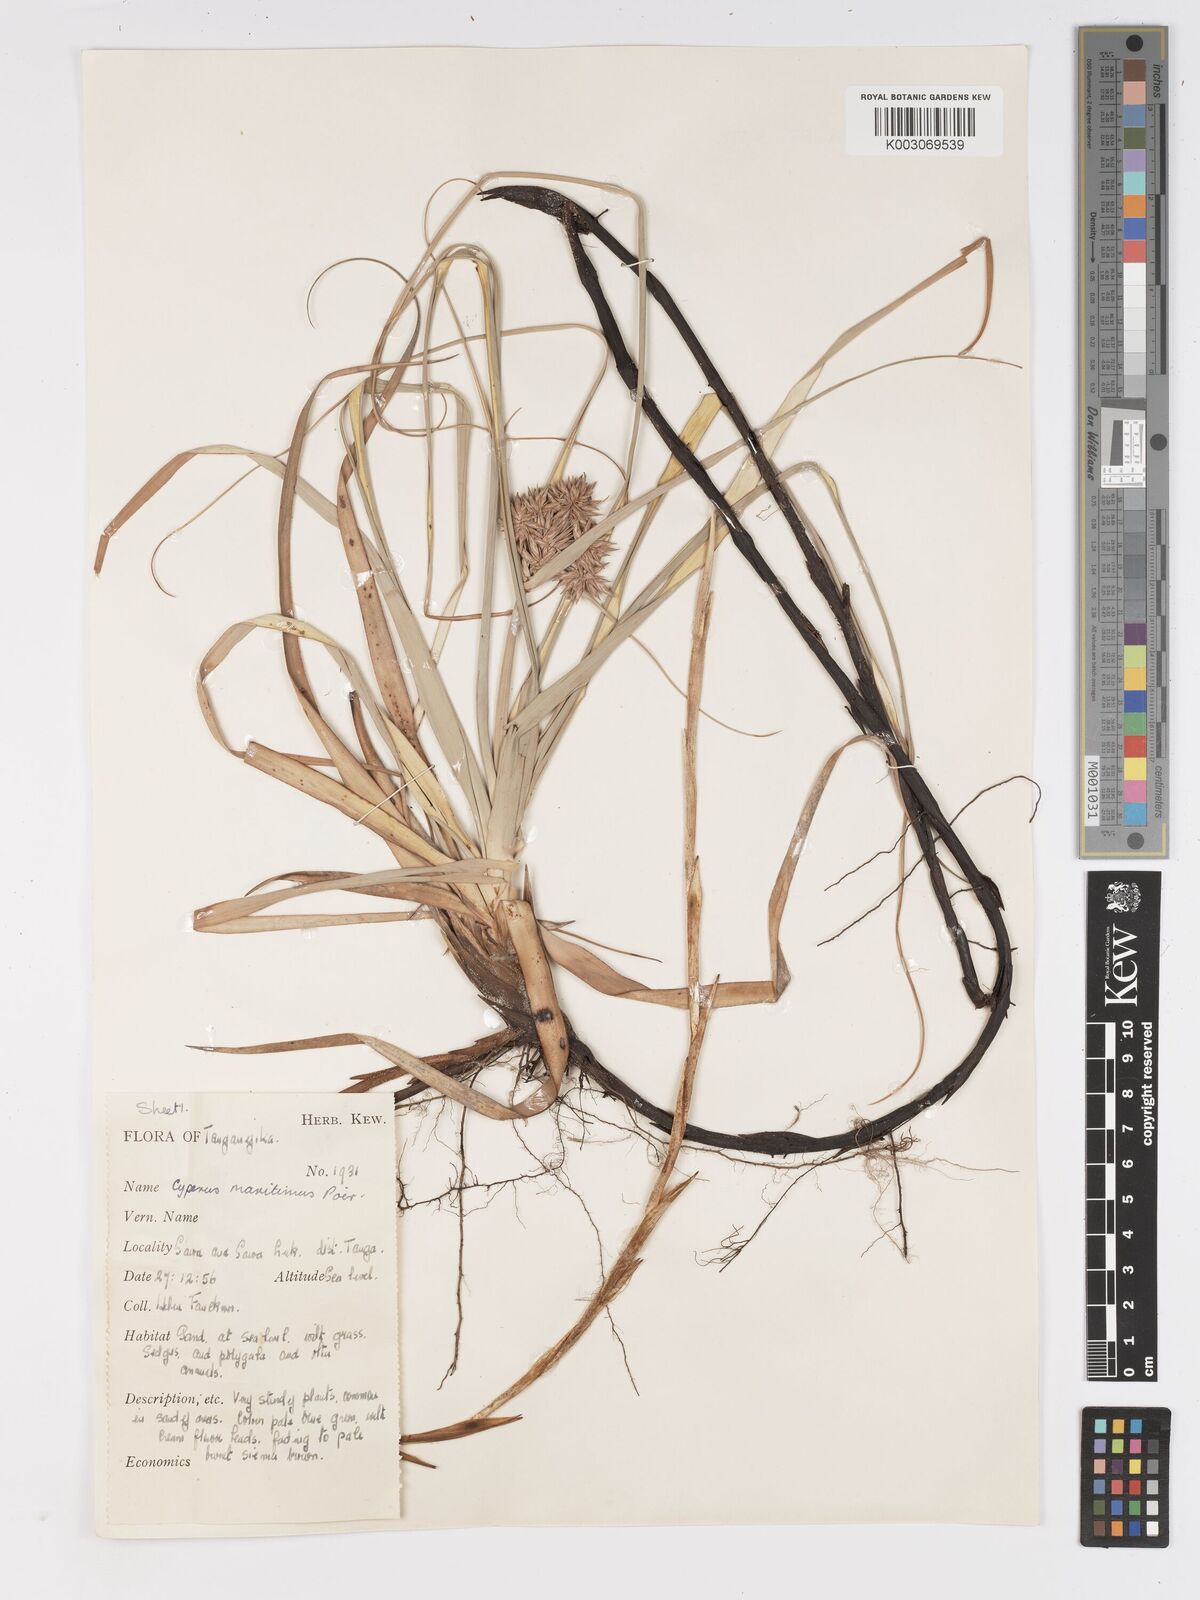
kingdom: Plantae
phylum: Tracheophyta
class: Liliopsida
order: Poales
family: Cyperaceae
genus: Cyperus
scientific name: Cyperus crassipes
